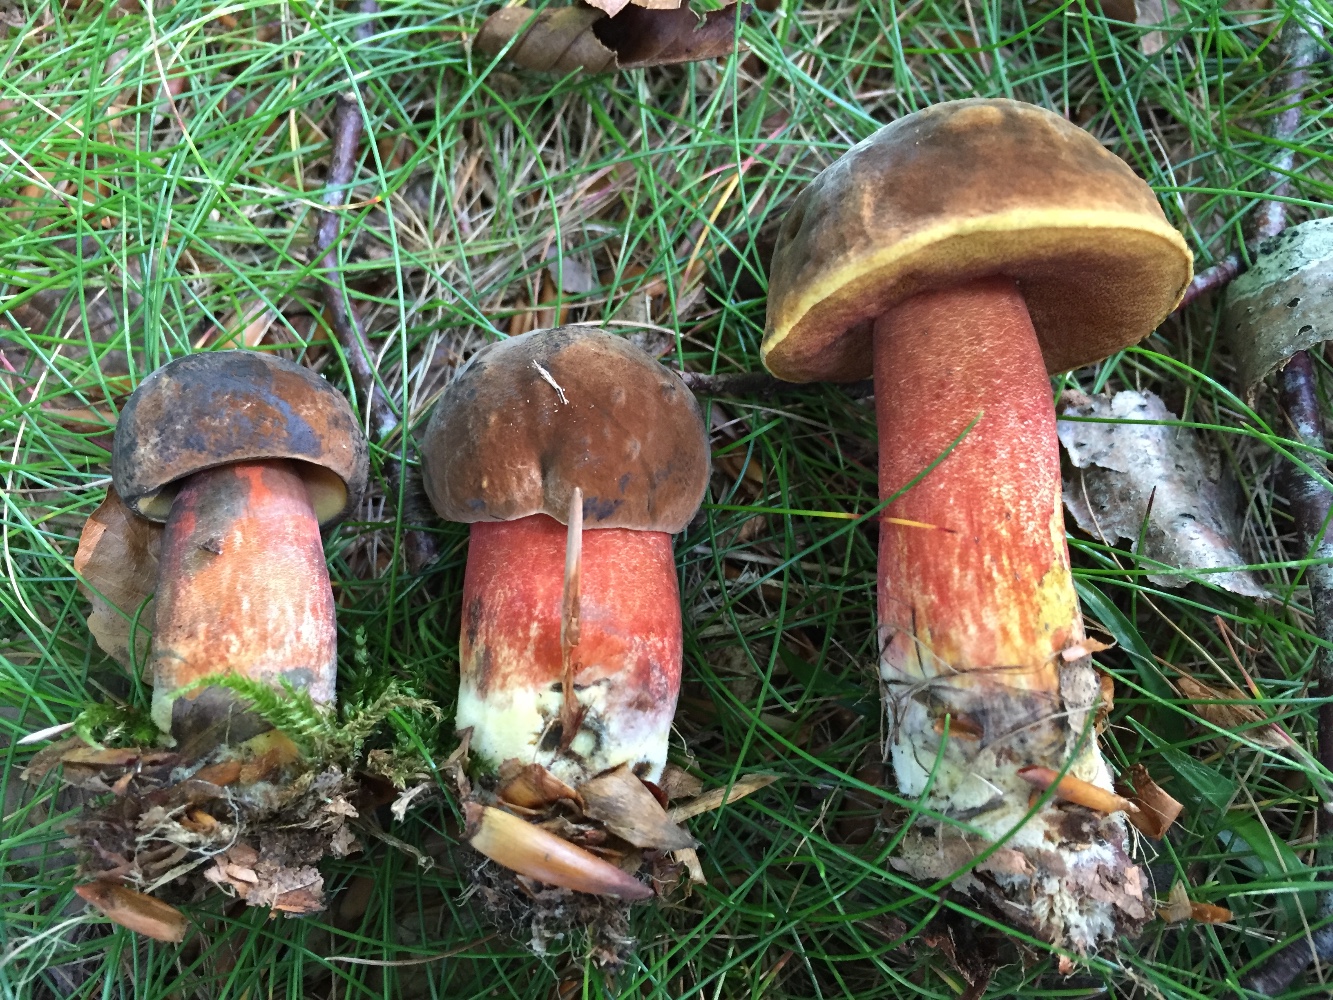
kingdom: Fungi
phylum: Basidiomycota
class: Agaricomycetes
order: Boletales
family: Boletaceae
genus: Neoboletus
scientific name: Neoboletus erythropus
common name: punktstokket indigorørhat
